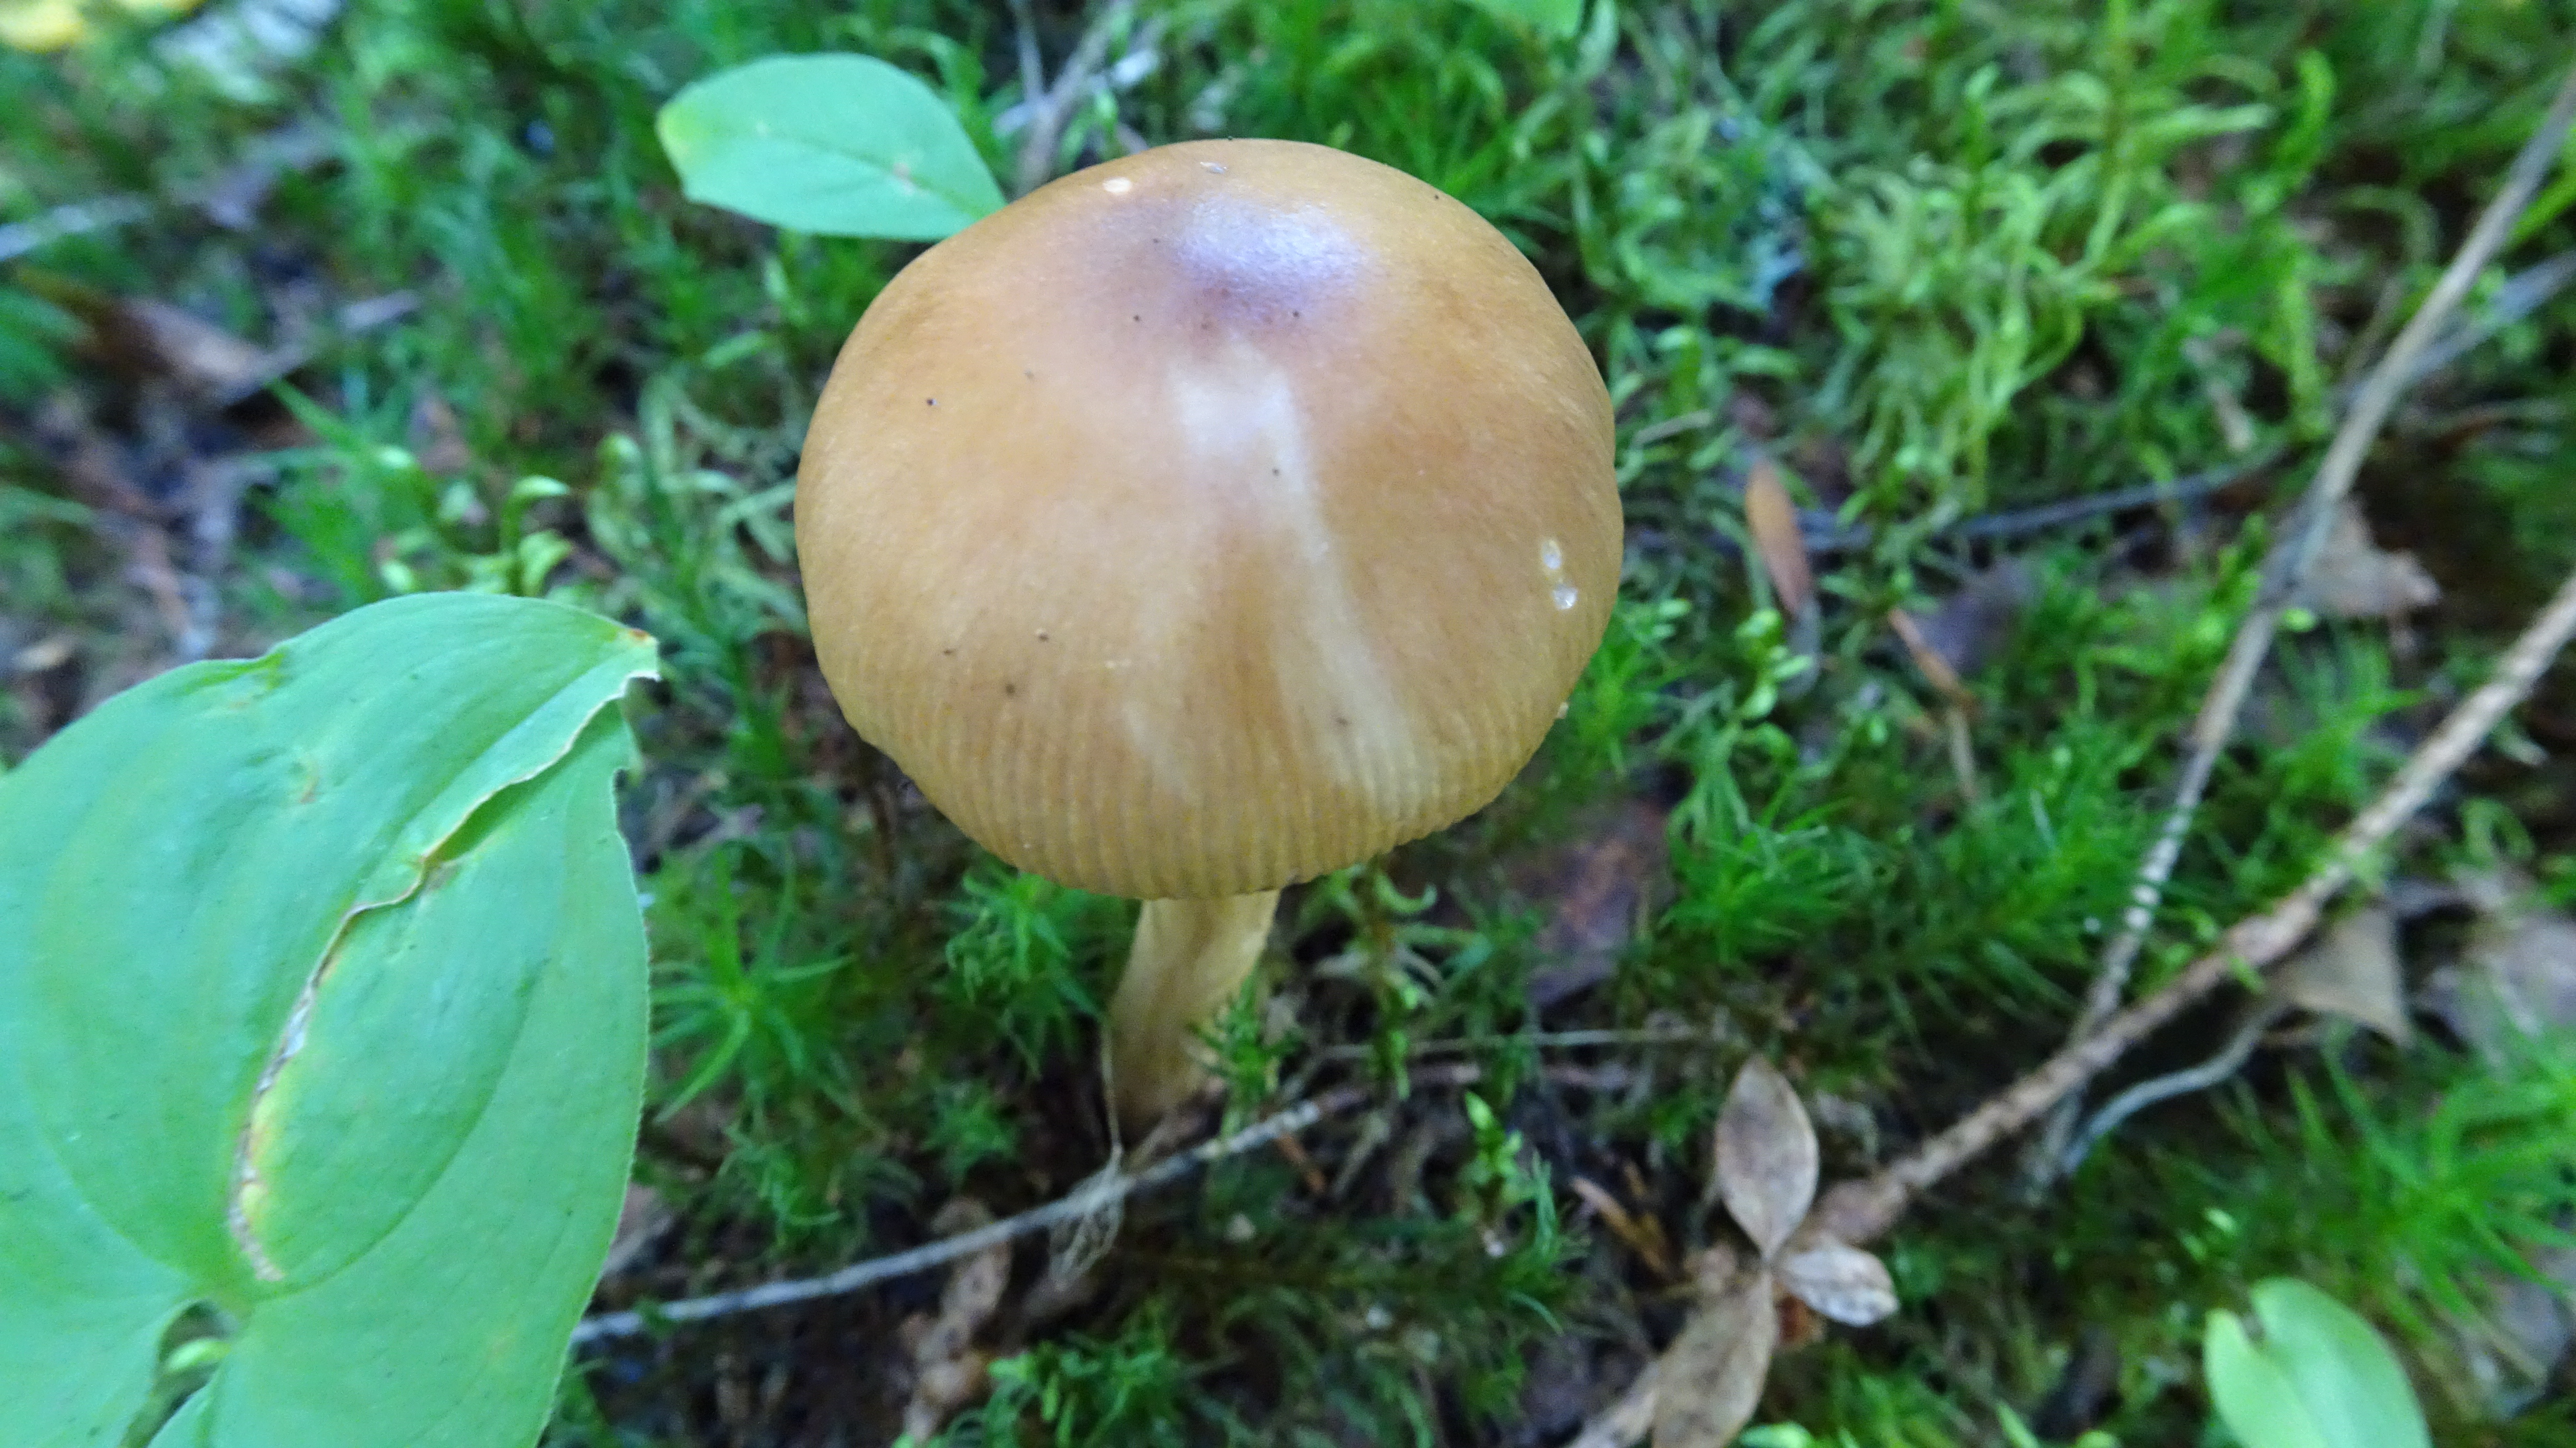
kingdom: Fungi
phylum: Basidiomycota
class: Agaricomycetes
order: Agaricales
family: Amanitaceae
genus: Amanita
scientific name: Amanita fulva
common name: Tawny grisette
